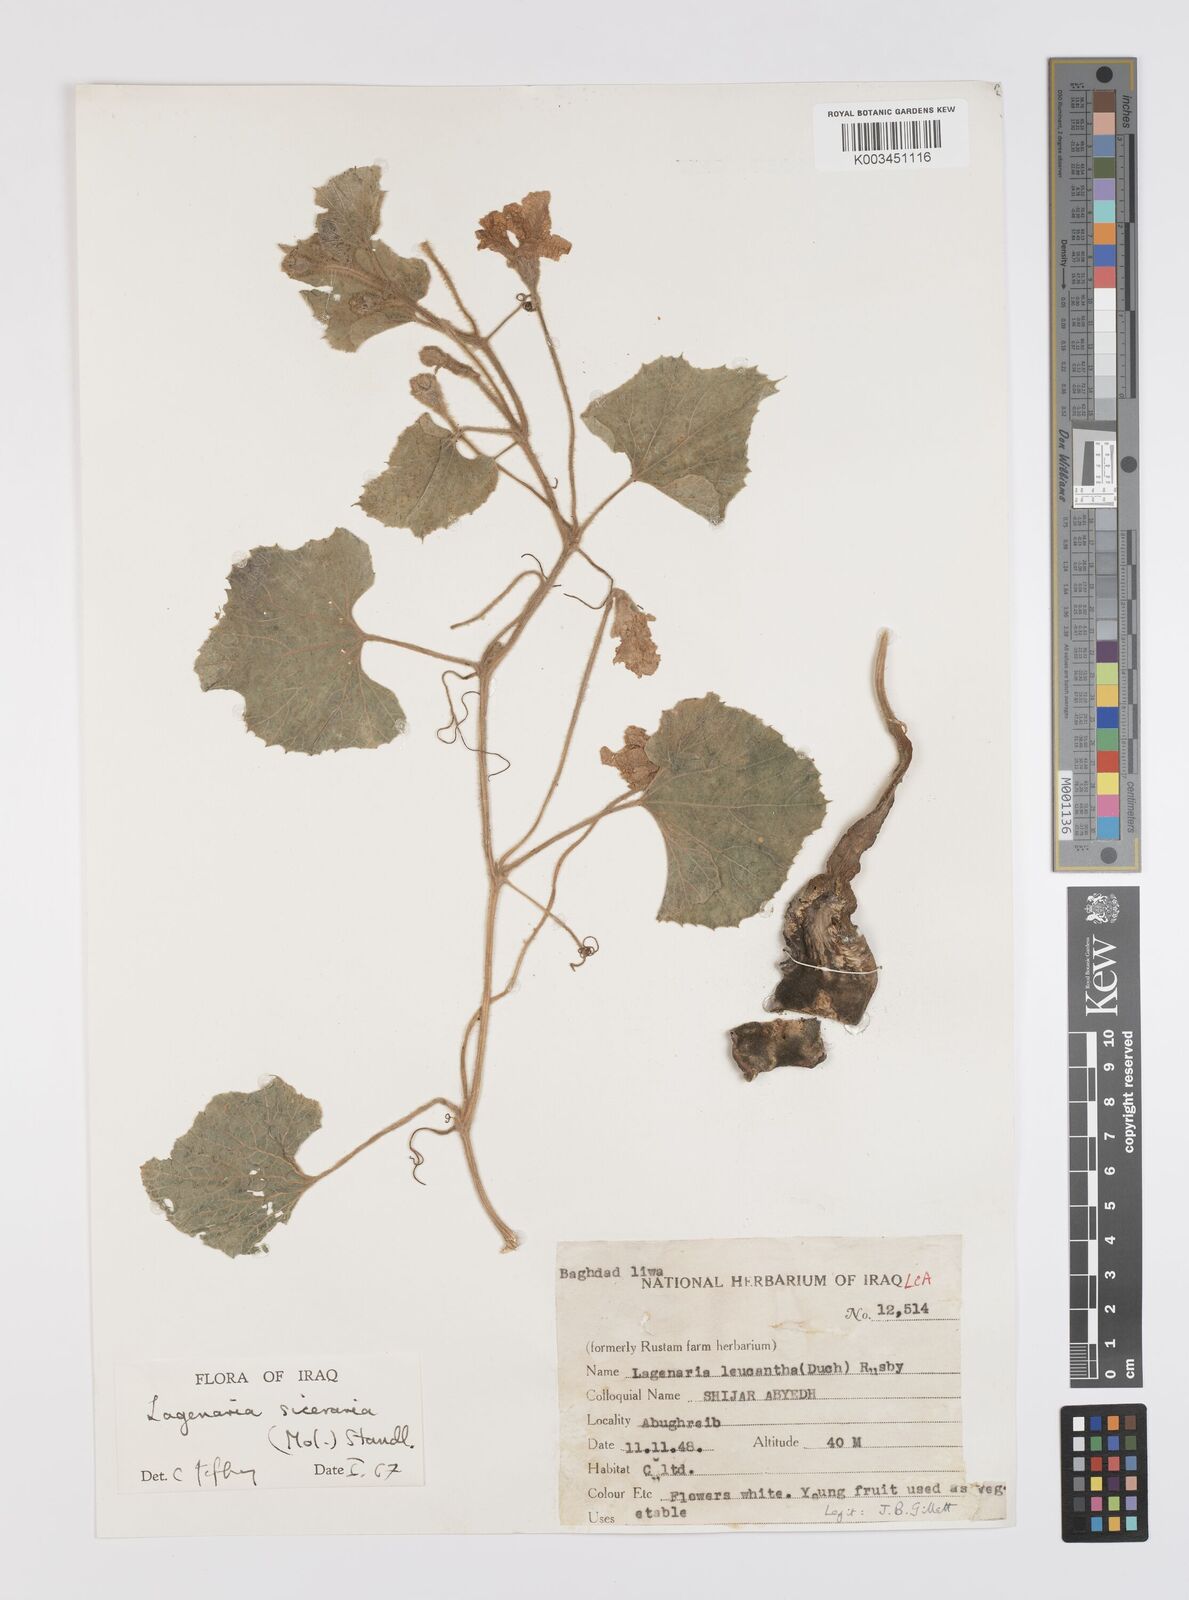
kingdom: Plantae
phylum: Tracheophyta
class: Magnoliopsida
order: Cucurbitales
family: Cucurbitaceae
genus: Lagenaria
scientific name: Lagenaria siceraria
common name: Bottle gourd
